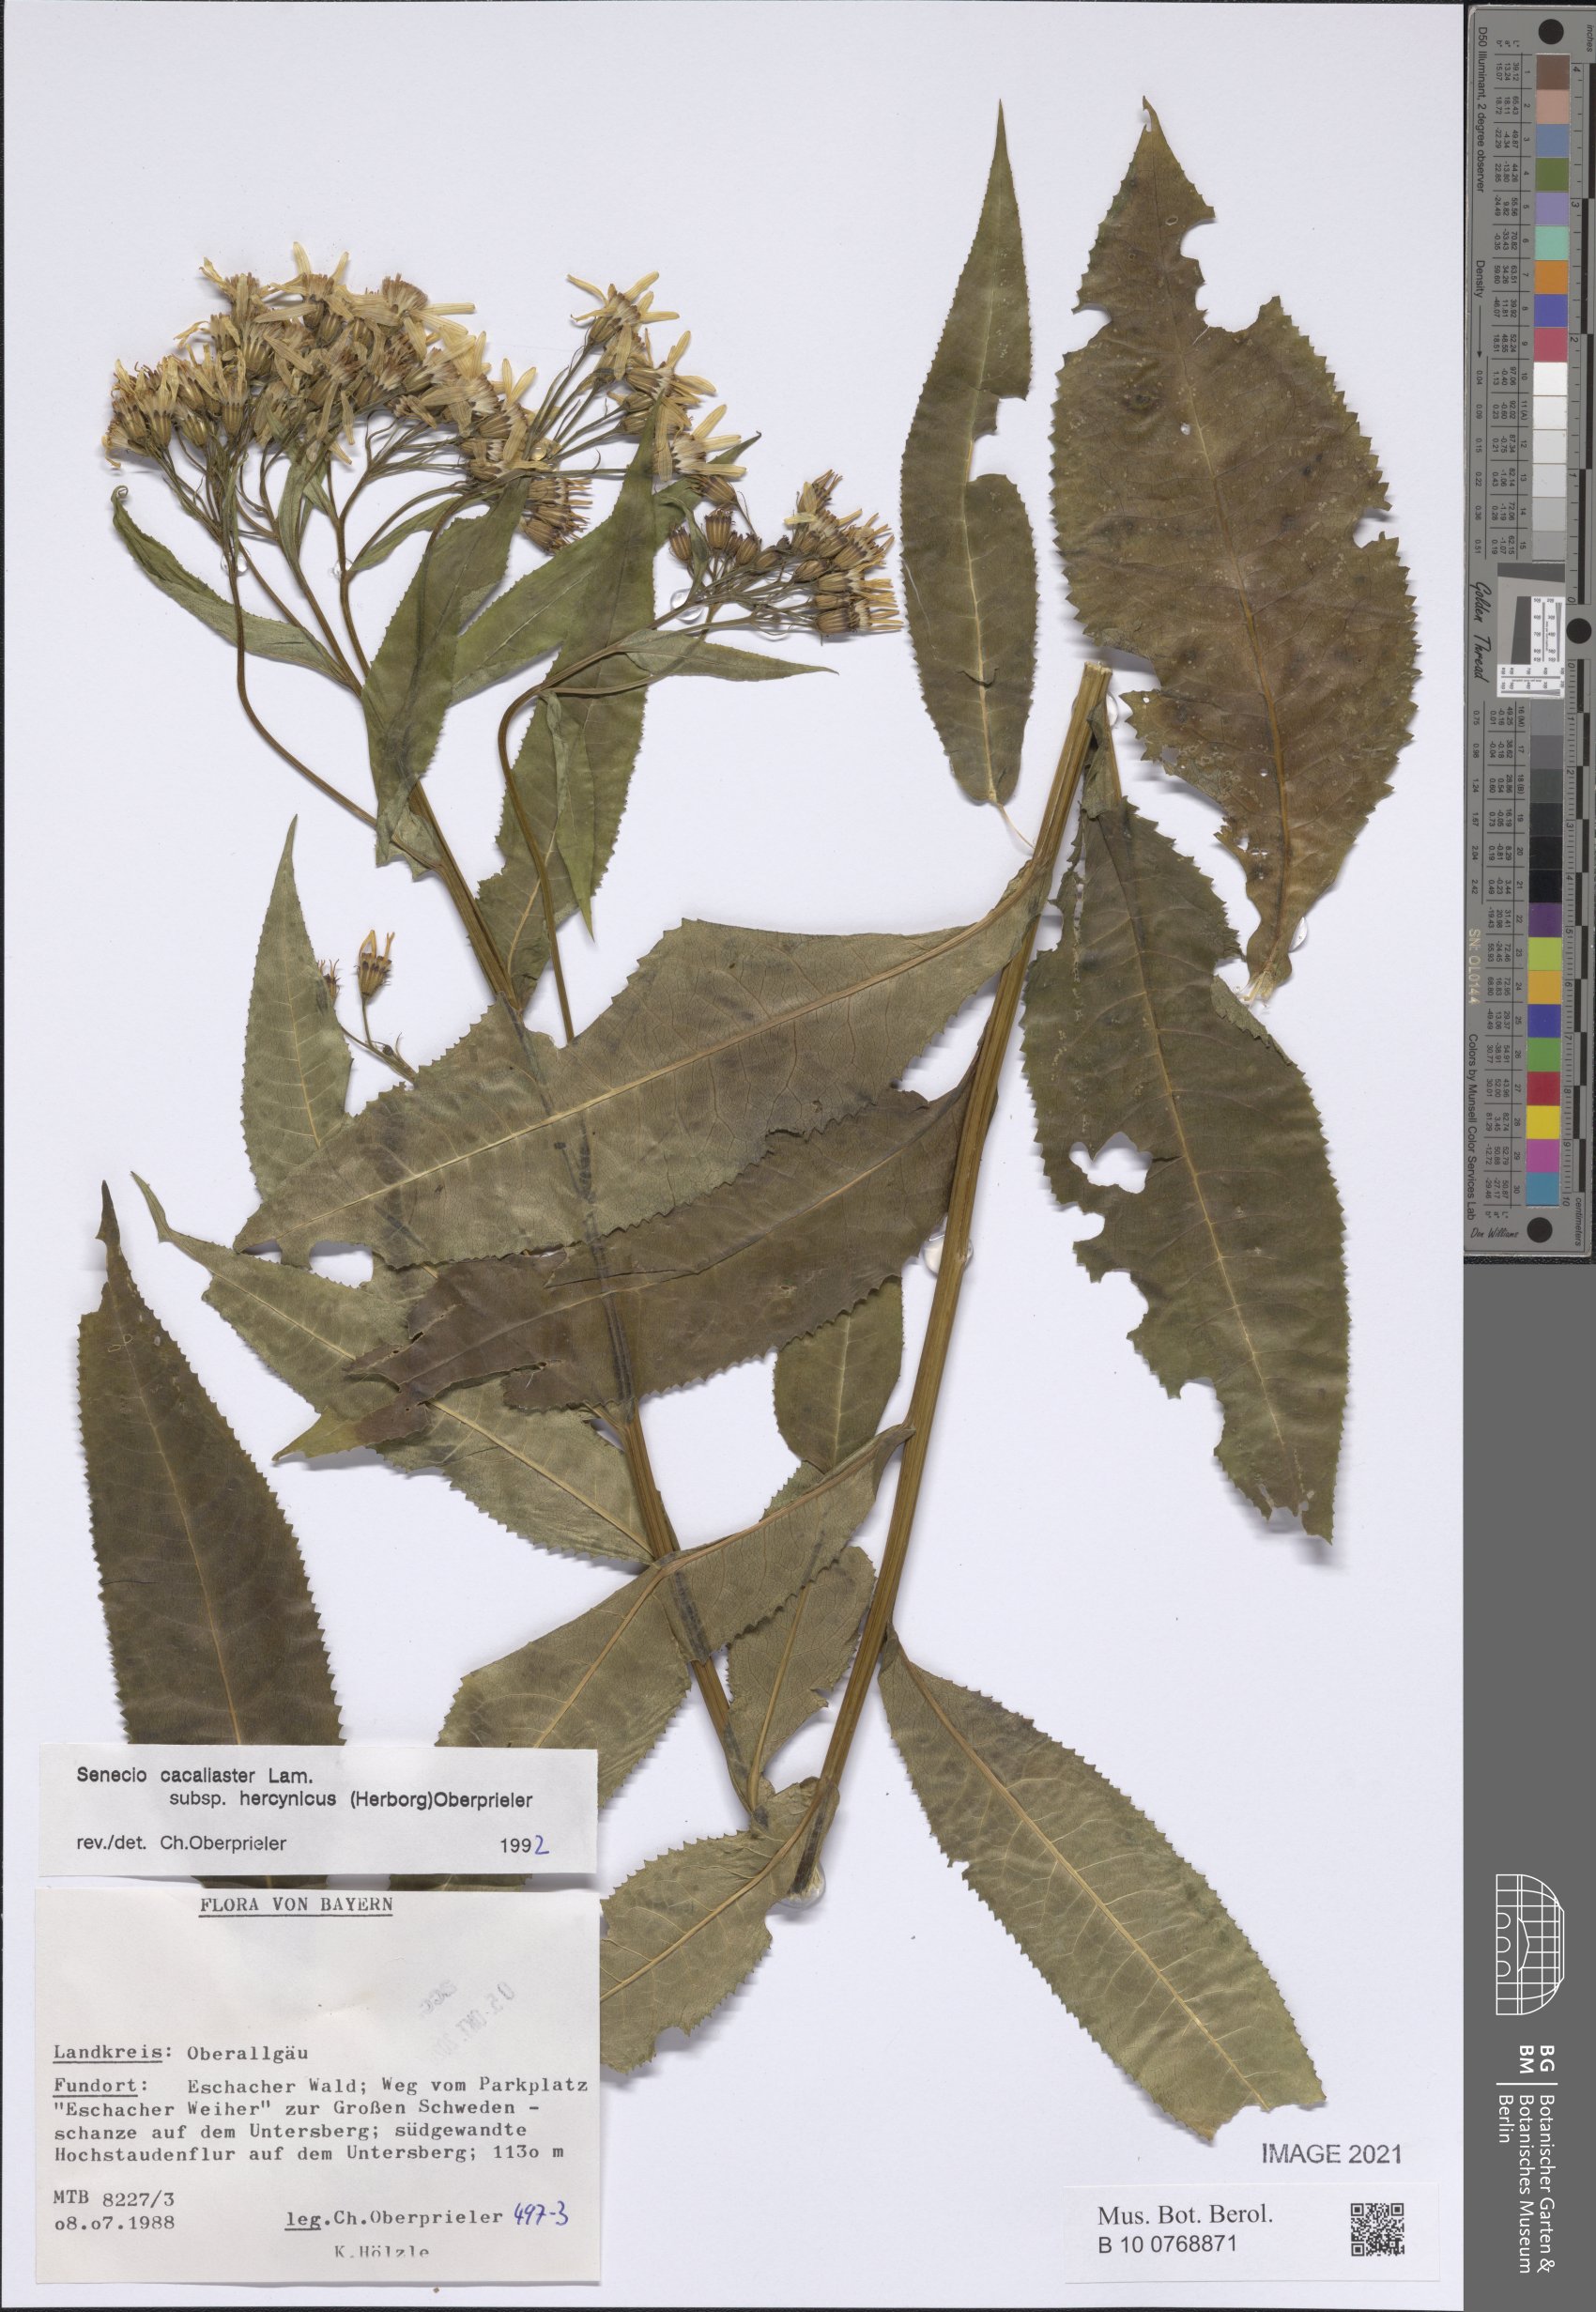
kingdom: Plantae
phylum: Tracheophyta
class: Magnoliopsida
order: Asterales
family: Asteraceae
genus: Senecio
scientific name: Senecio hercynicus
